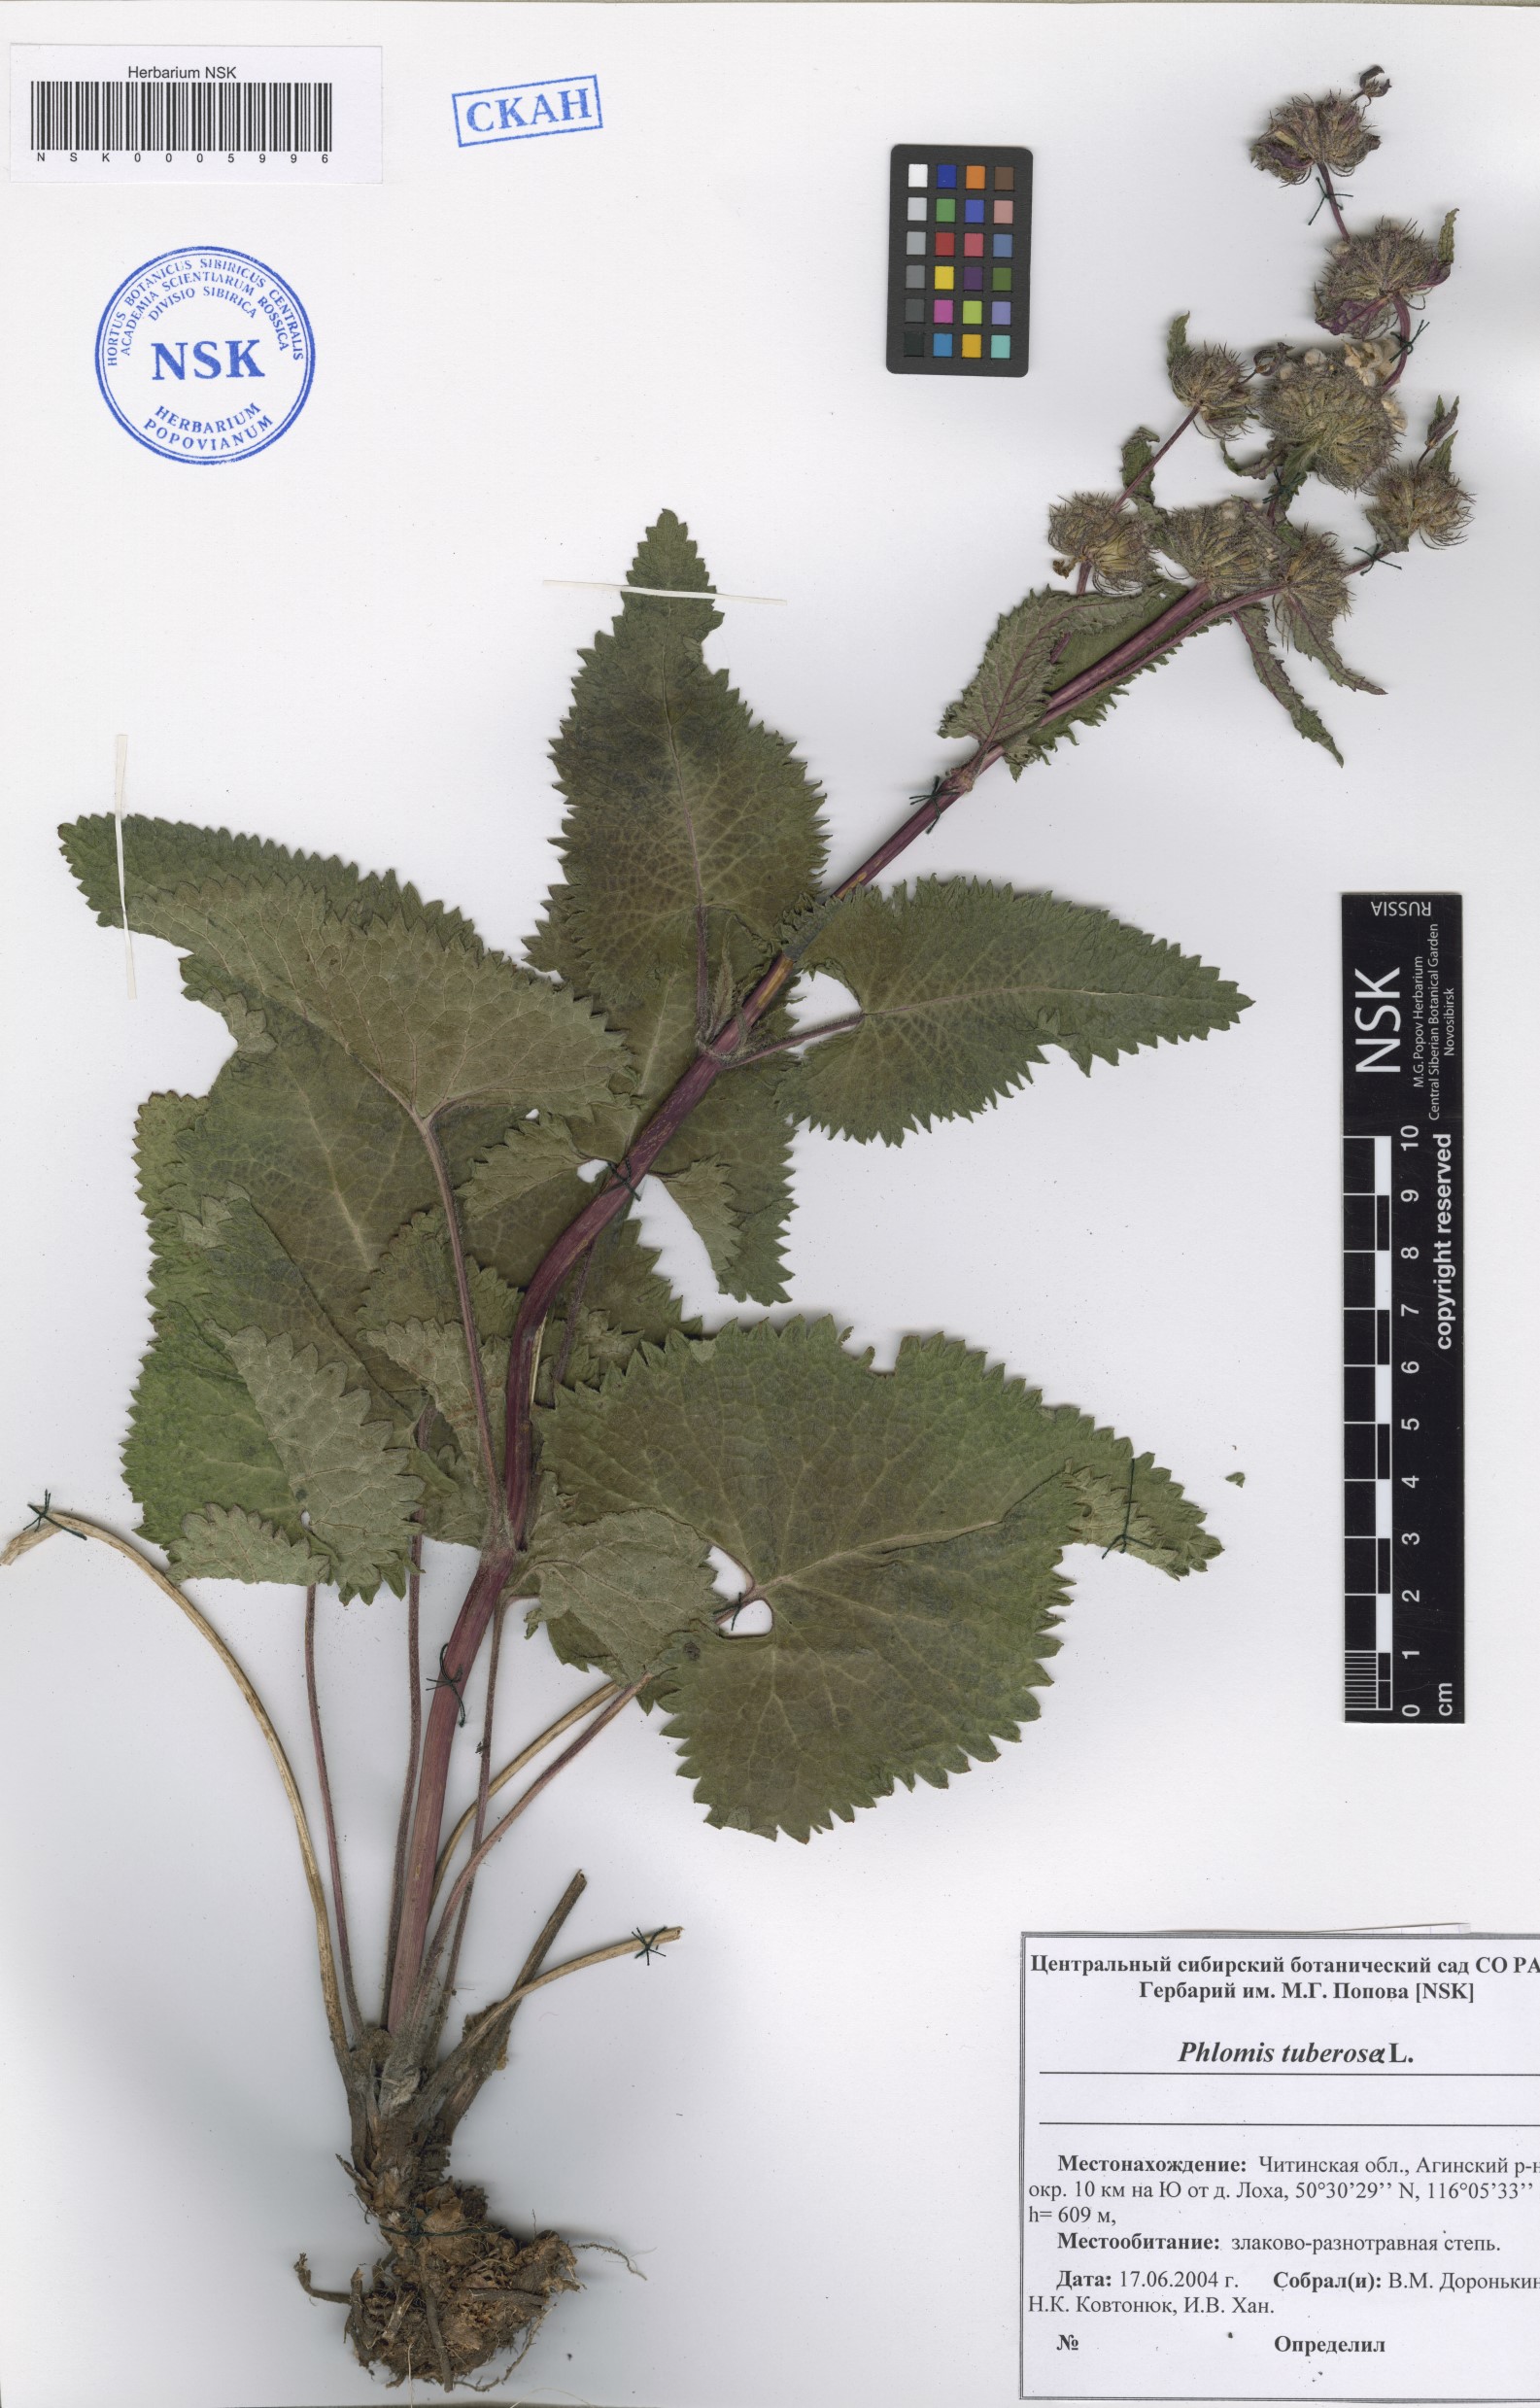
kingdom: Plantae
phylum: Tracheophyta
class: Magnoliopsida
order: Lamiales
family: Lamiaceae
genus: Phlomoides
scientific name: Phlomoides tuberosa
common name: Tuberous jerusalem sage
